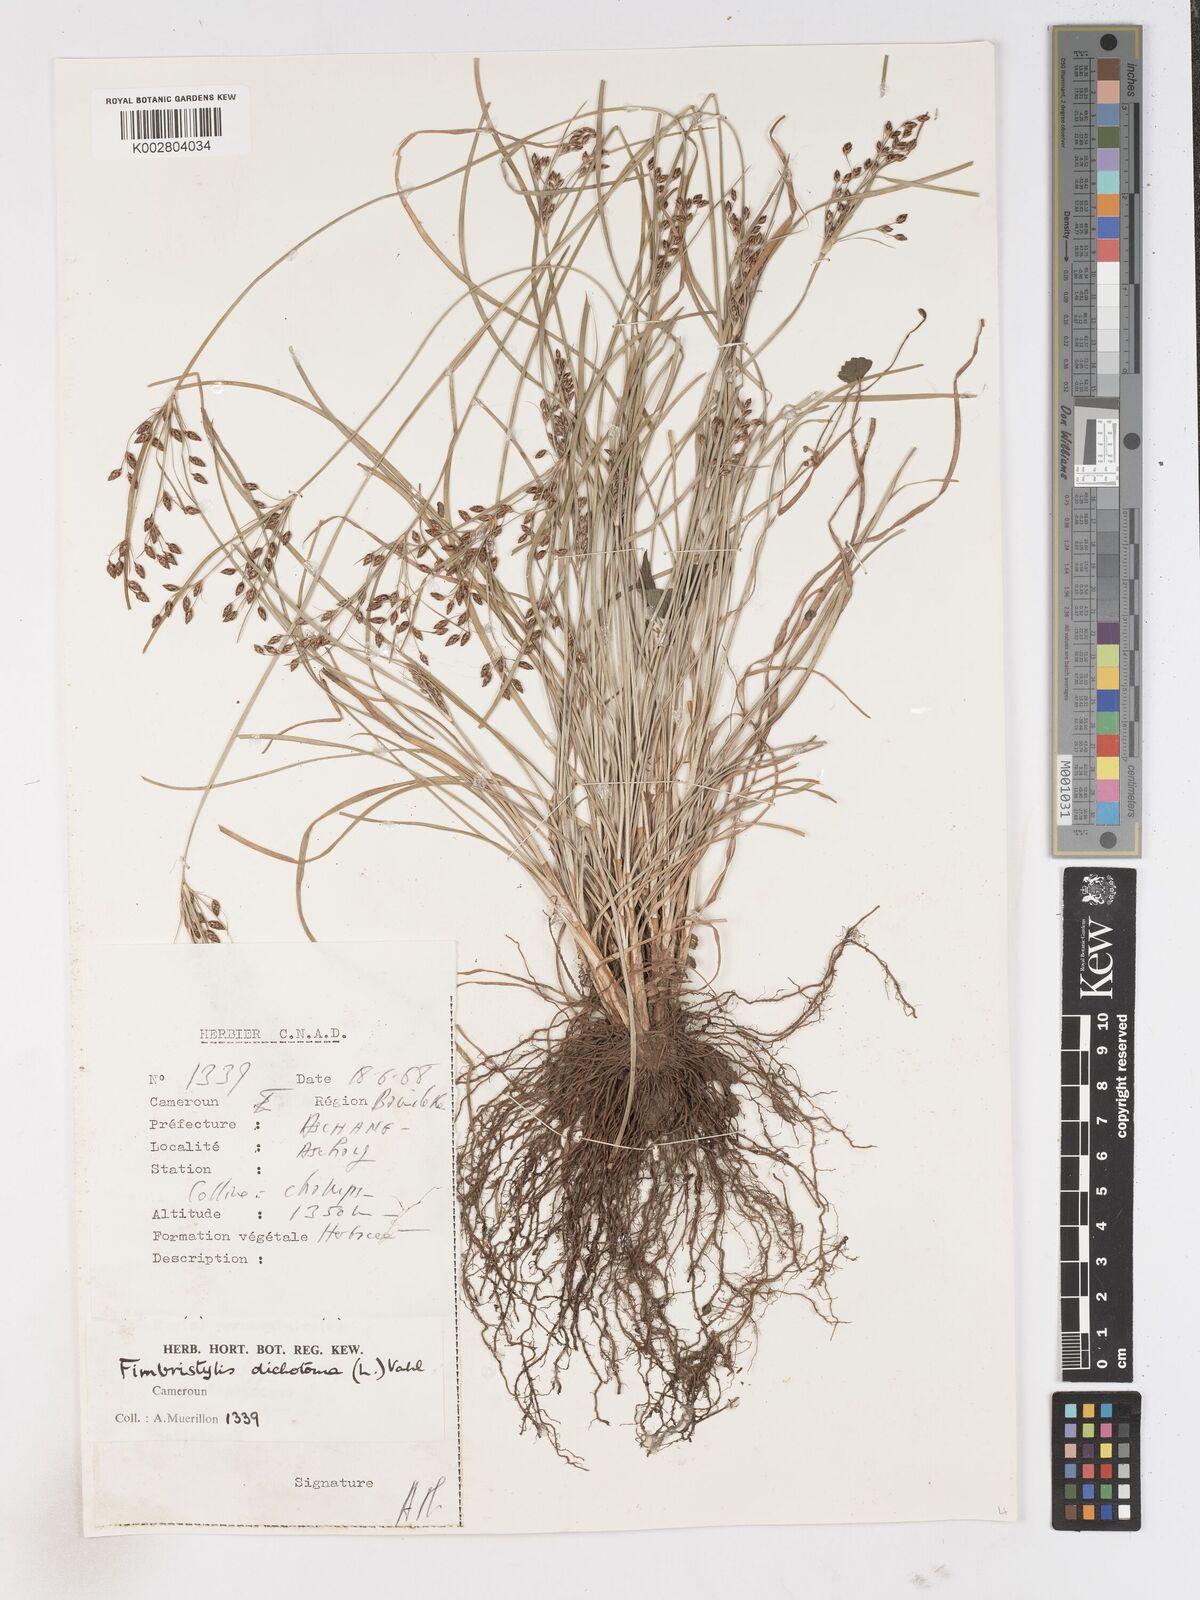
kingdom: Plantae
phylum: Tracheophyta
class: Liliopsida
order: Poales
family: Cyperaceae
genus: Fimbristylis
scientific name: Fimbristylis dichotoma
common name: Forked fimbry
